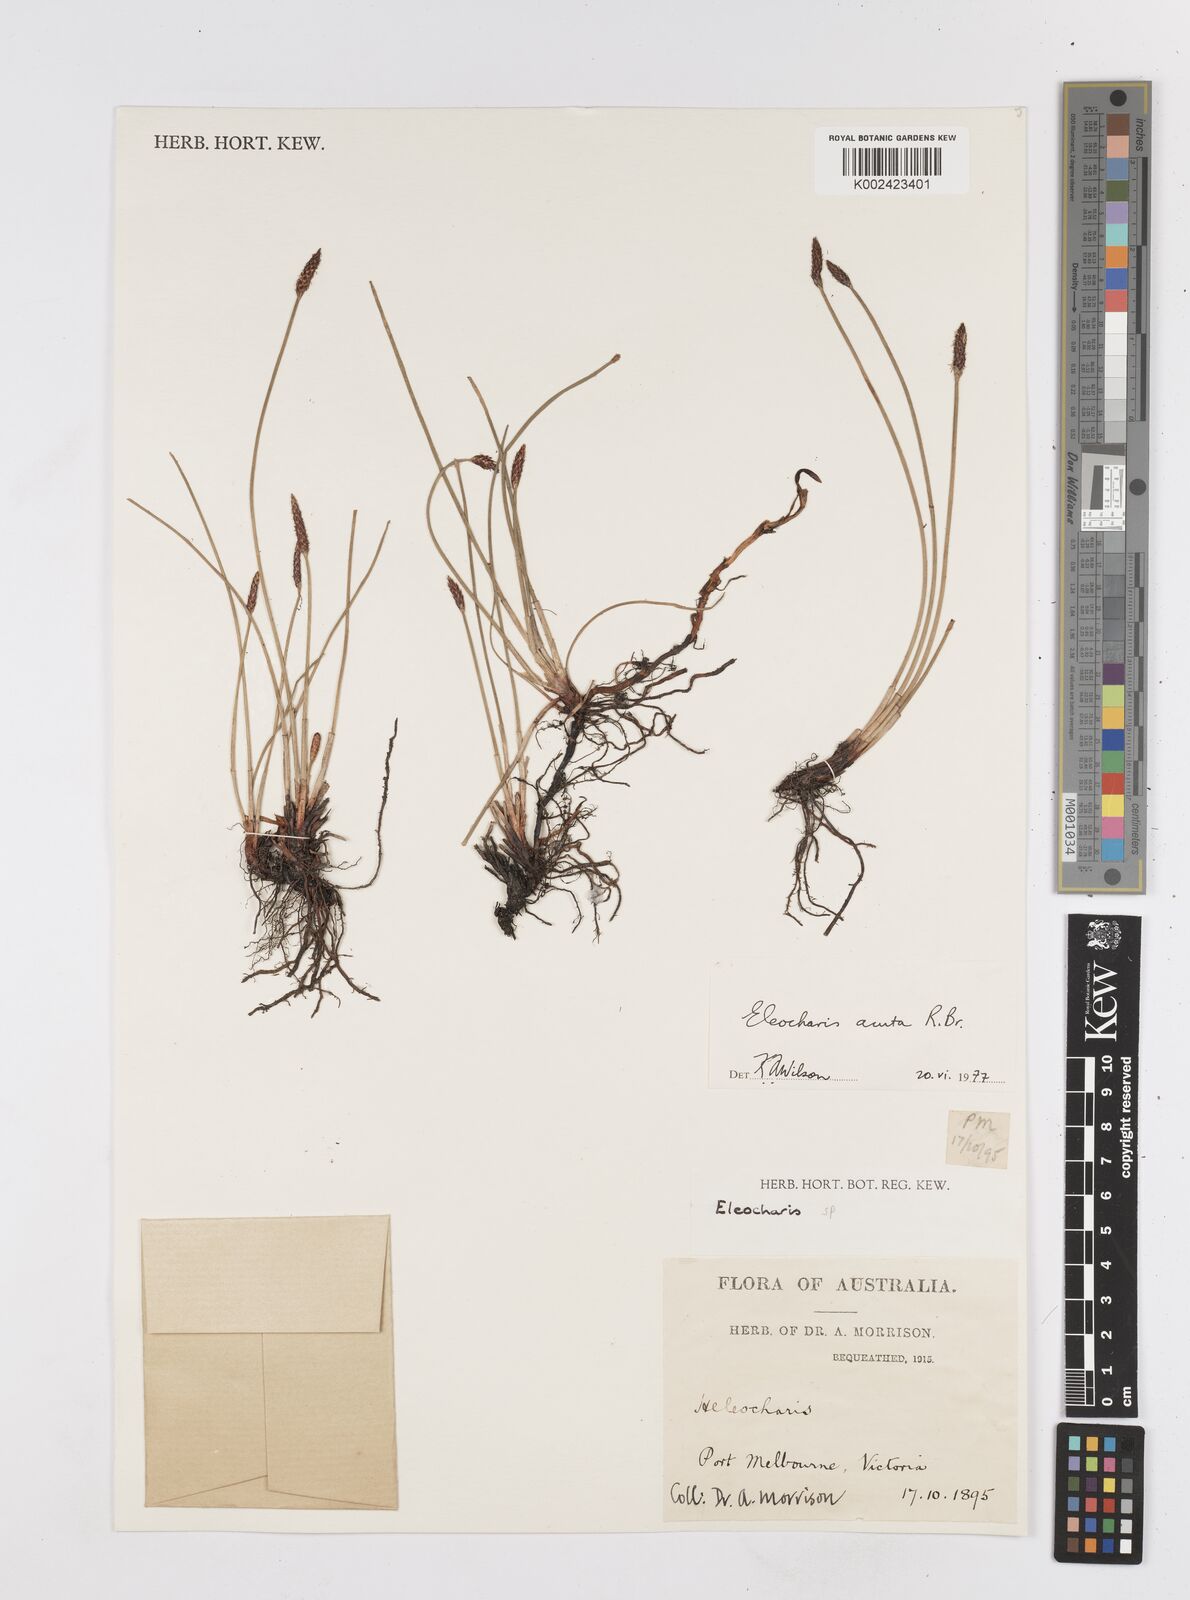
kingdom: Plantae
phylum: Tracheophyta
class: Liliopsida
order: Poales
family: Cyperaceae
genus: Eleocharis
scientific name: Eleocharis acuta
